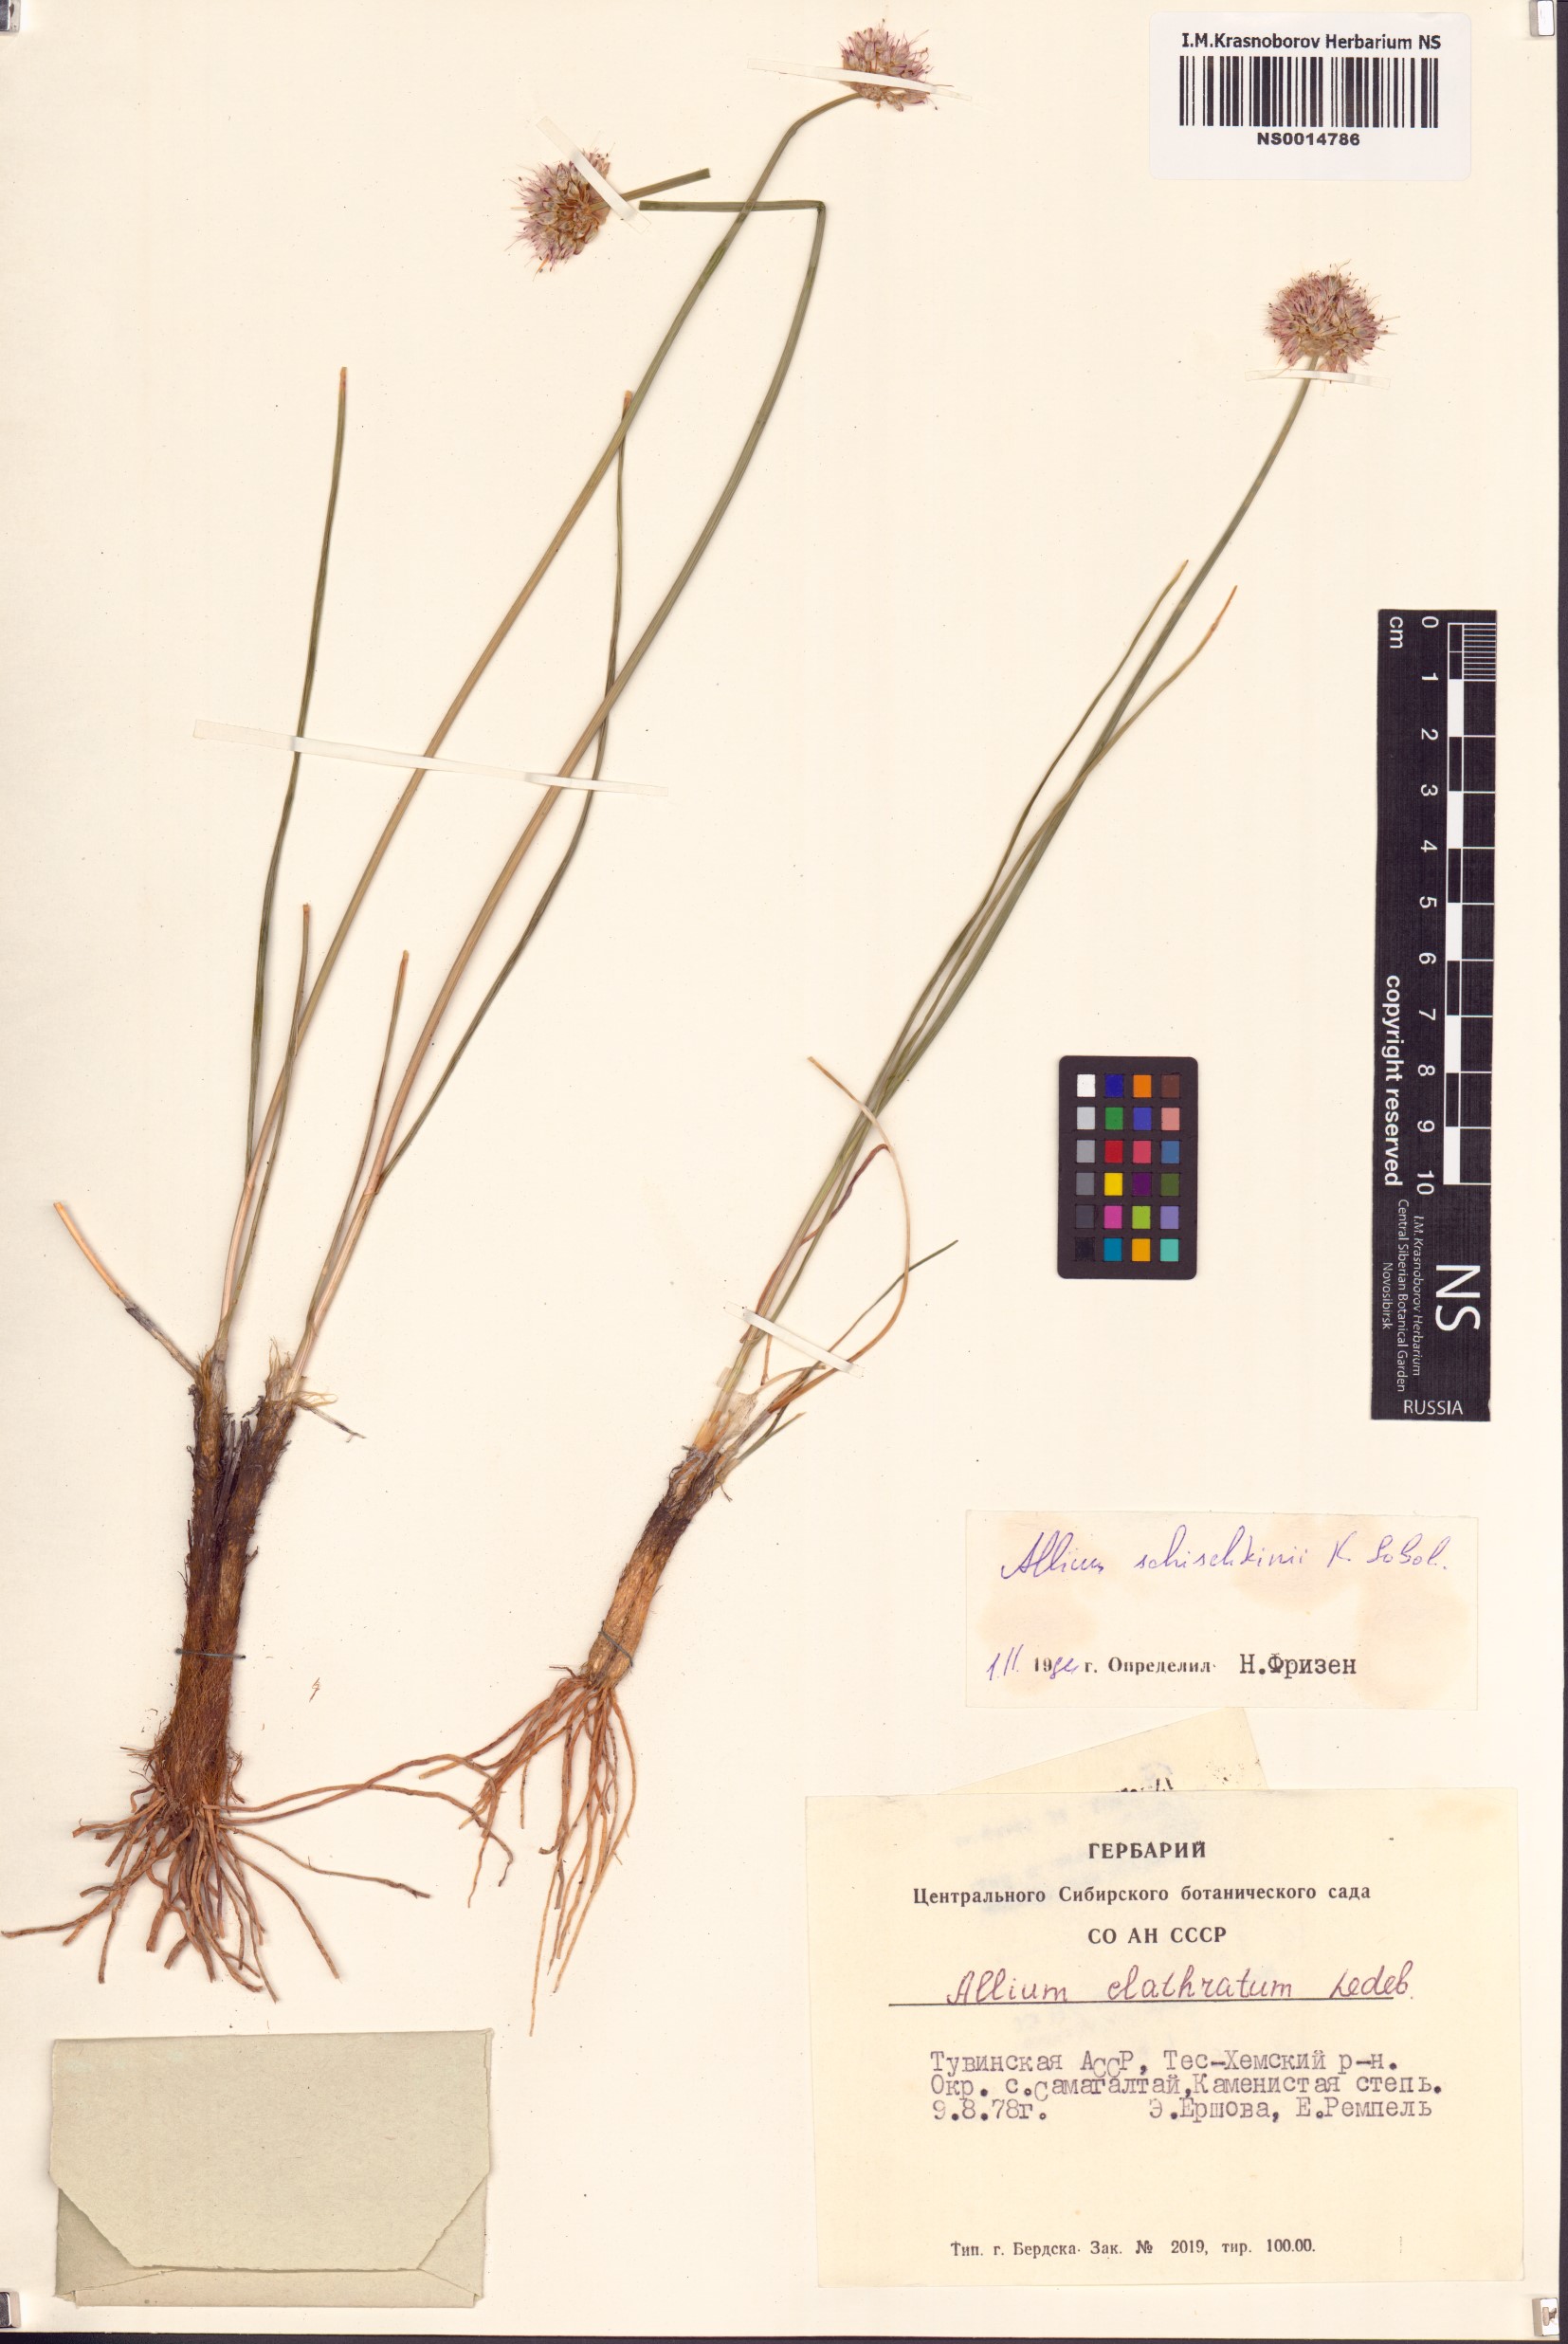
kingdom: Plantae
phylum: Tracheophyta
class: Liliopsida
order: Asparagales
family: Amaryllidaceae
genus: Allium
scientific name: Allium schischkinii
